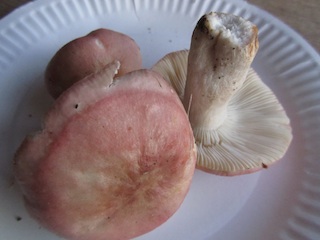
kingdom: Fungi
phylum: Basidiomycota
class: Agaricomycetes
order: Russulales
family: Russulaceae
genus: Russula
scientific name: Russula depallens
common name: falmende skørhat
